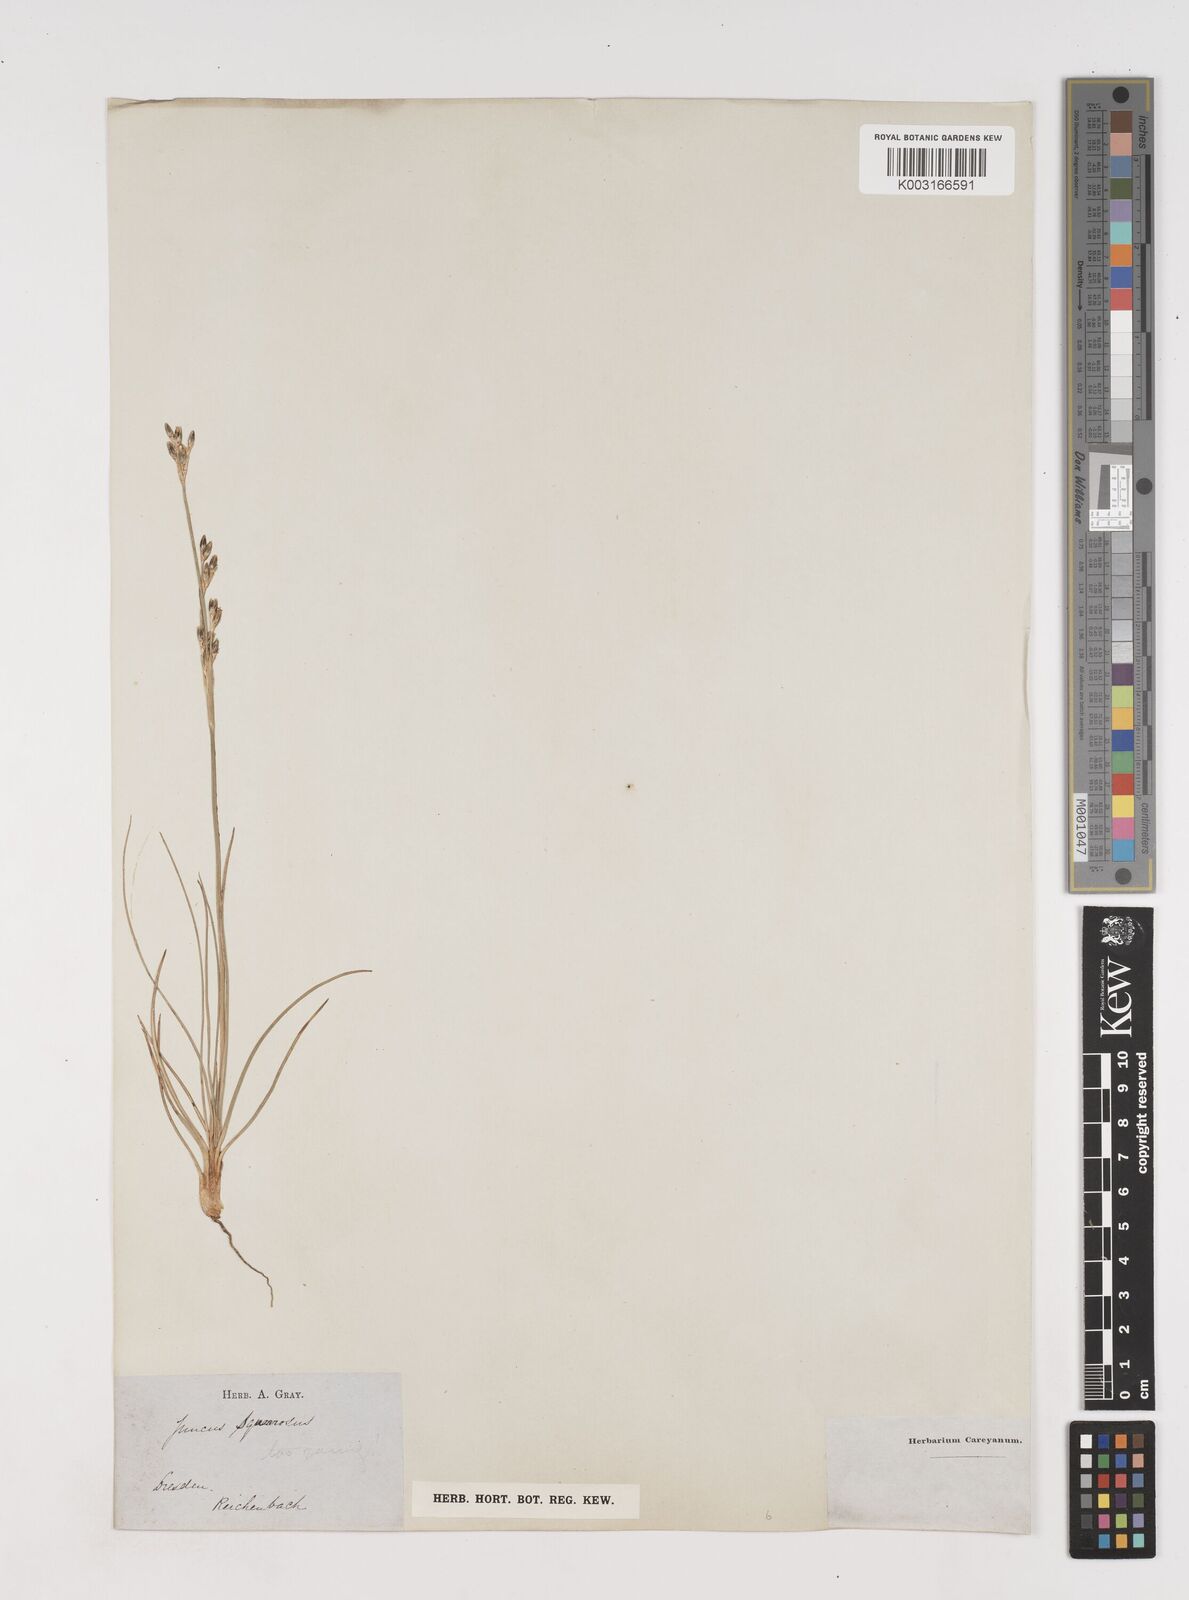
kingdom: Plantae
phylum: Tracheophyta
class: Liliopsida
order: Poales
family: Juncaceae
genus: Juncus
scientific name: Juncus squarrosus
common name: Heath rush
